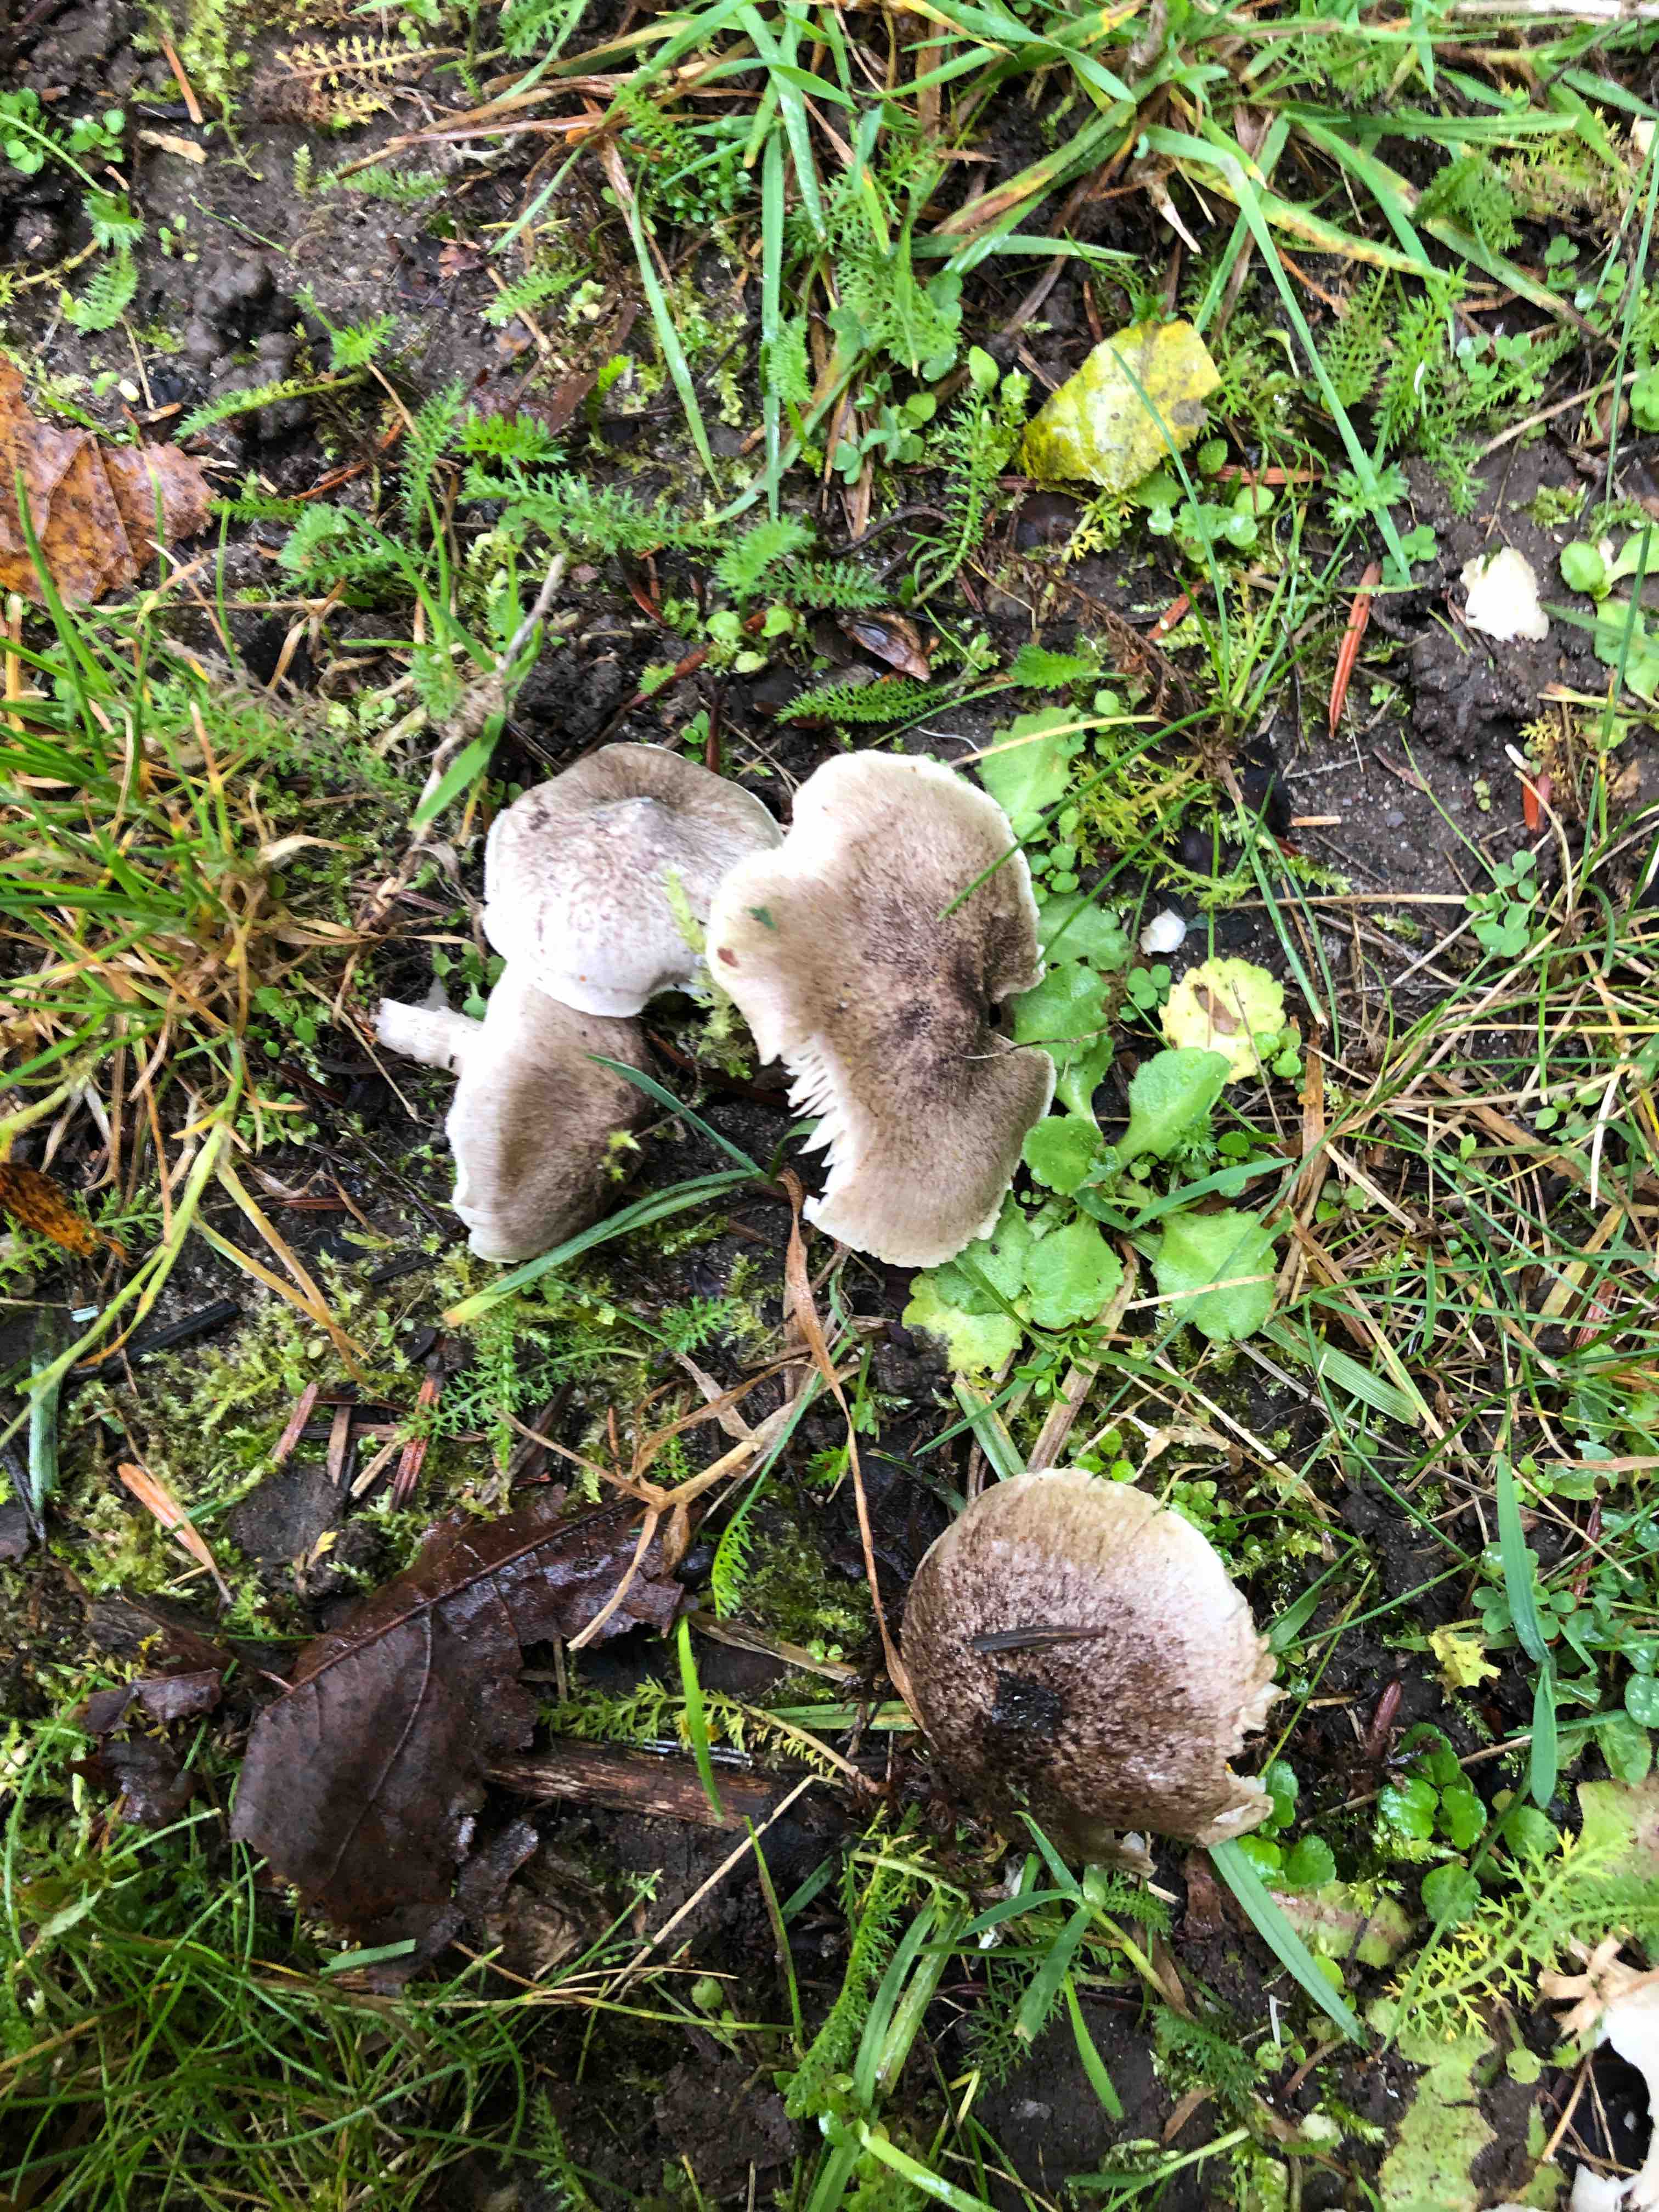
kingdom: Fungi
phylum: Basidiomycota
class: Agaricomycetes
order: Agaricales
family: Tricholomataceae
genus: Tricholoma
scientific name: Tricholoma
